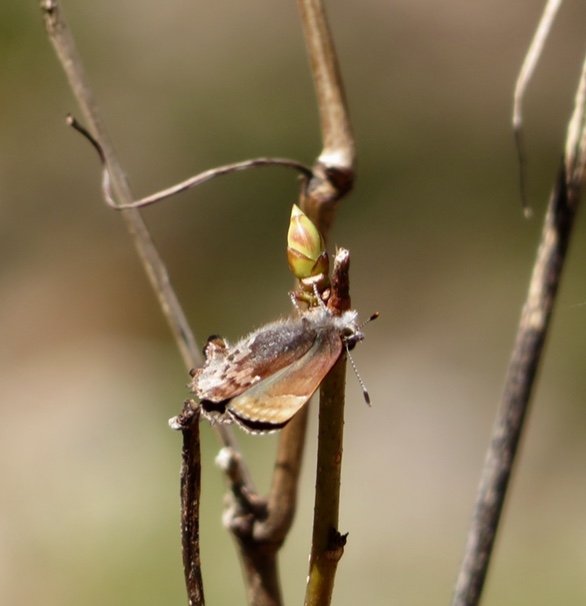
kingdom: Animalia
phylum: Arthropoda
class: Insecta
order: Lepidoptera
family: Lycaenidae
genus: Incisalia
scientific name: Incisalia henrici
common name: Henry's Elfin
